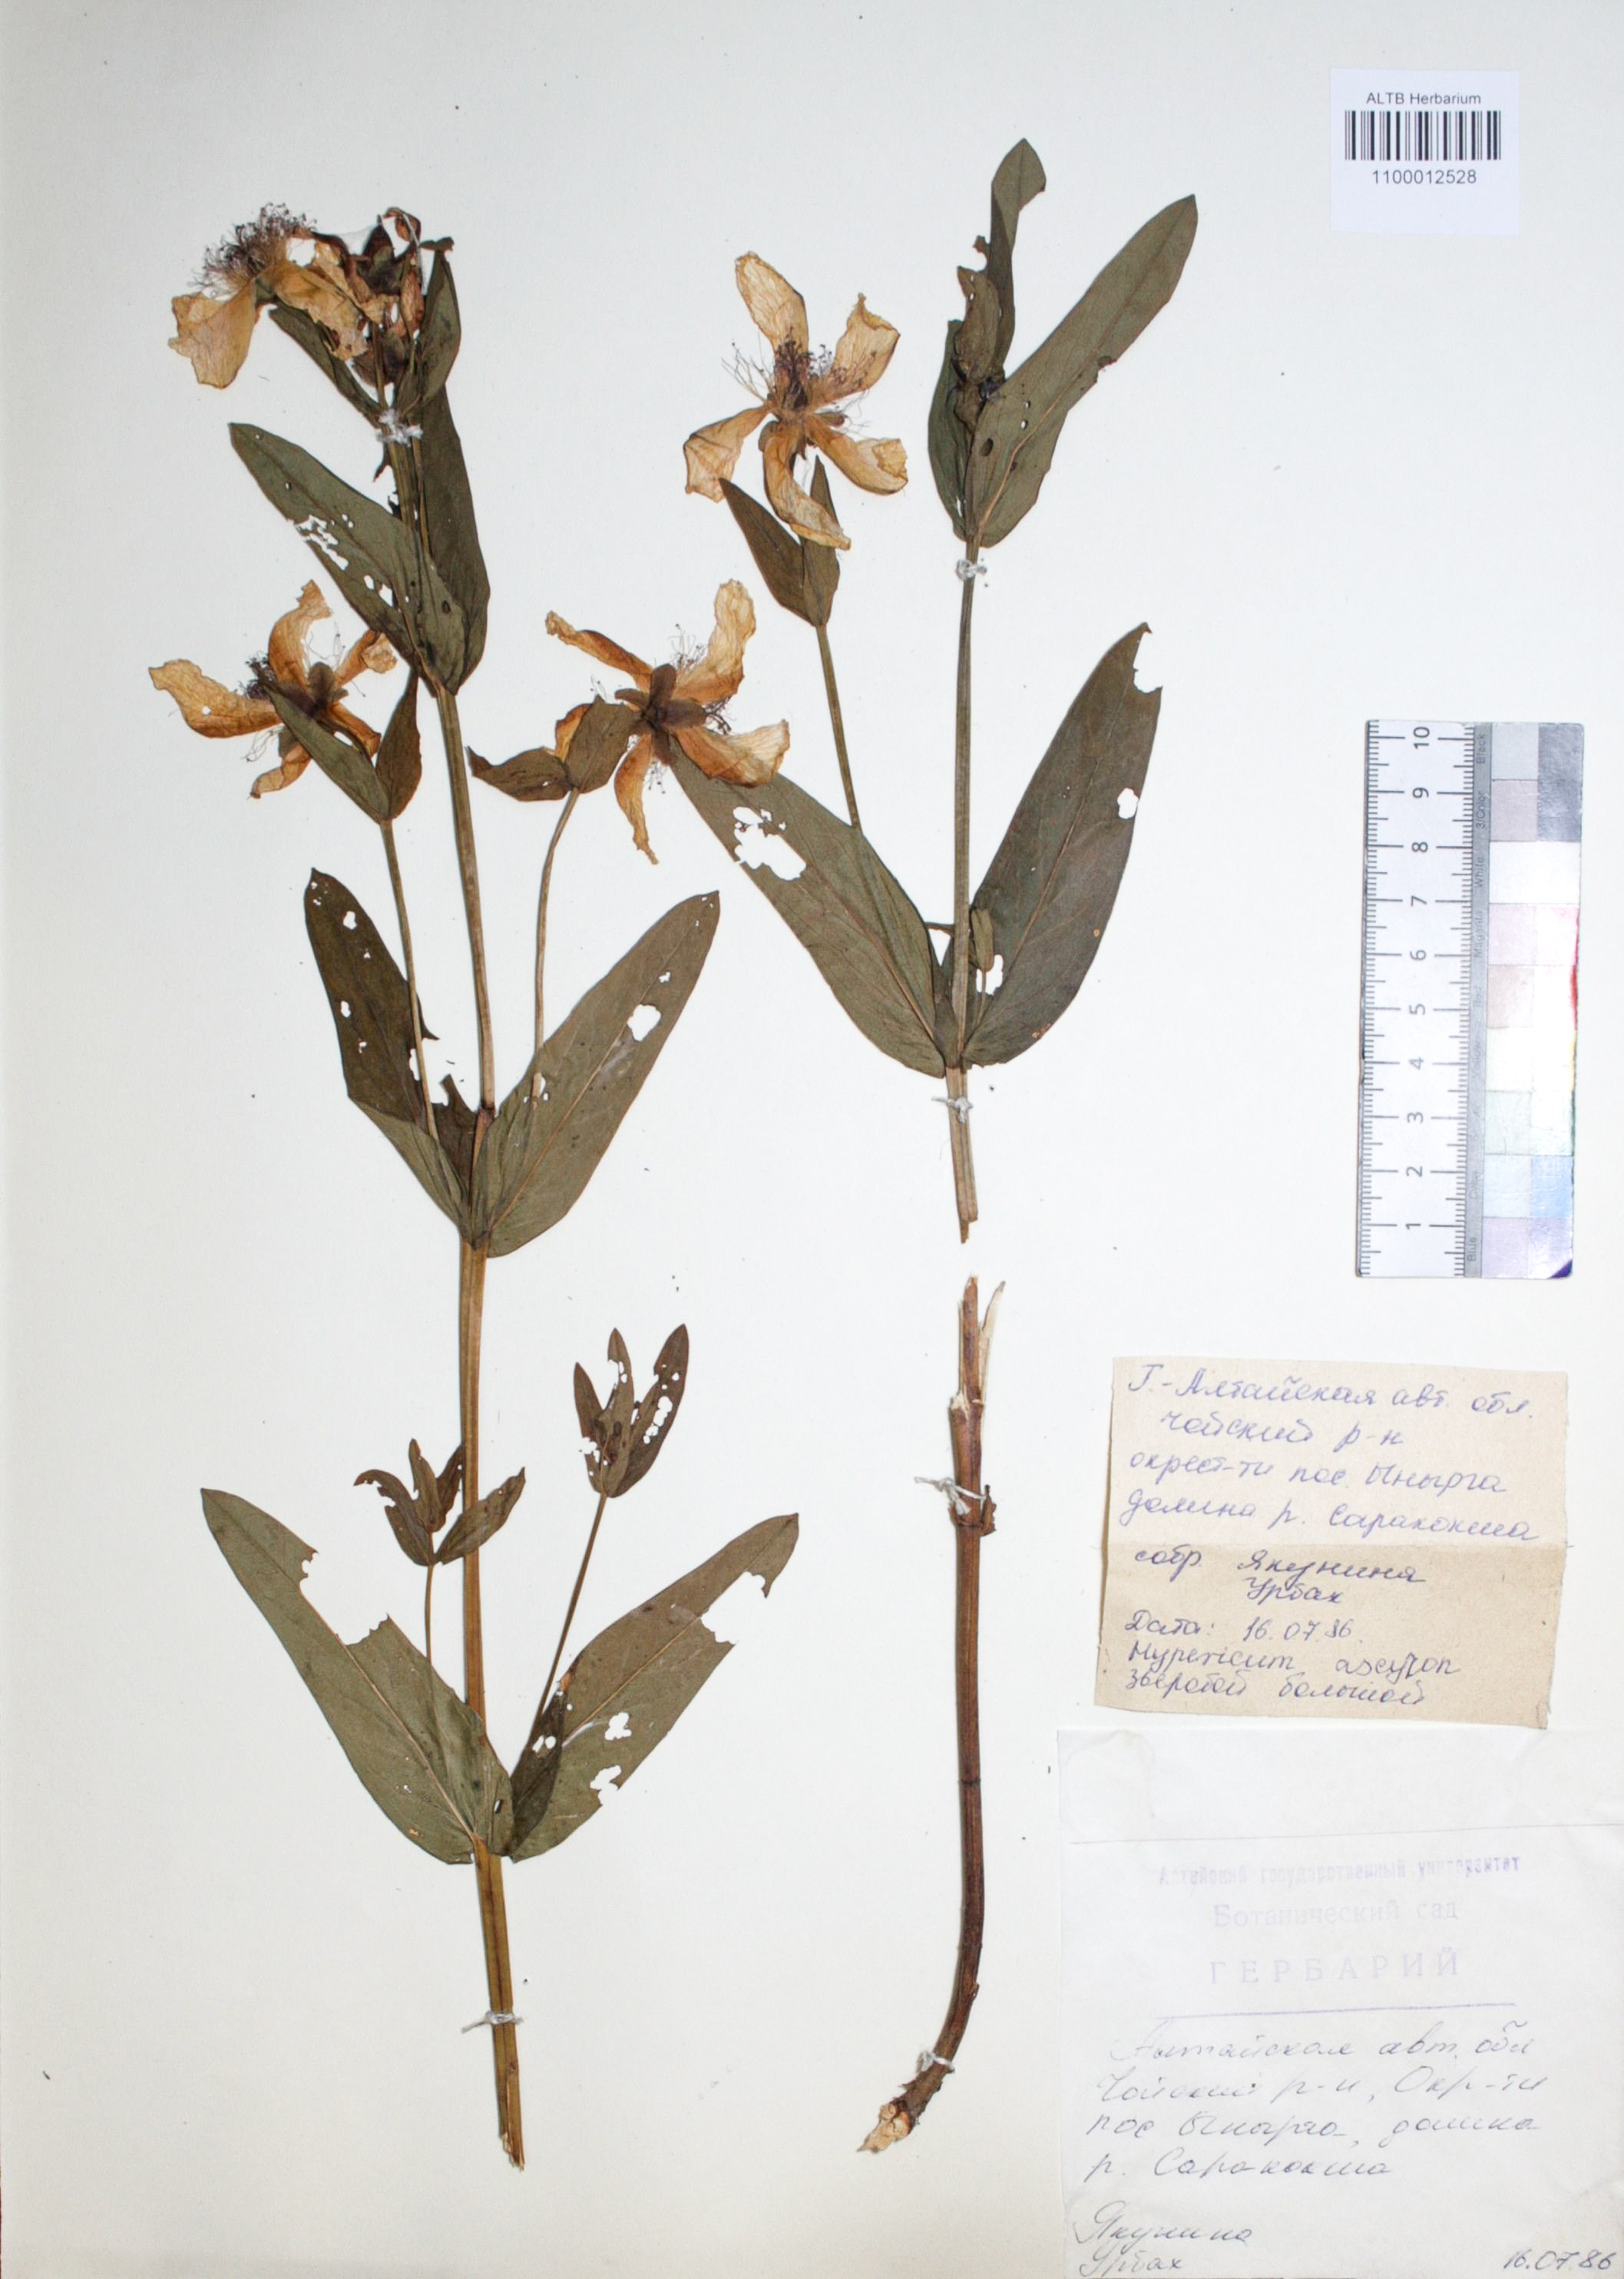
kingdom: Plantae
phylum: Tracheophyta
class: Magnoliopsida
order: Malpighiales
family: Hypericaceae
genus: Hypericum
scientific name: Hypericum ascyron
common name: Giant st. john's-wort
